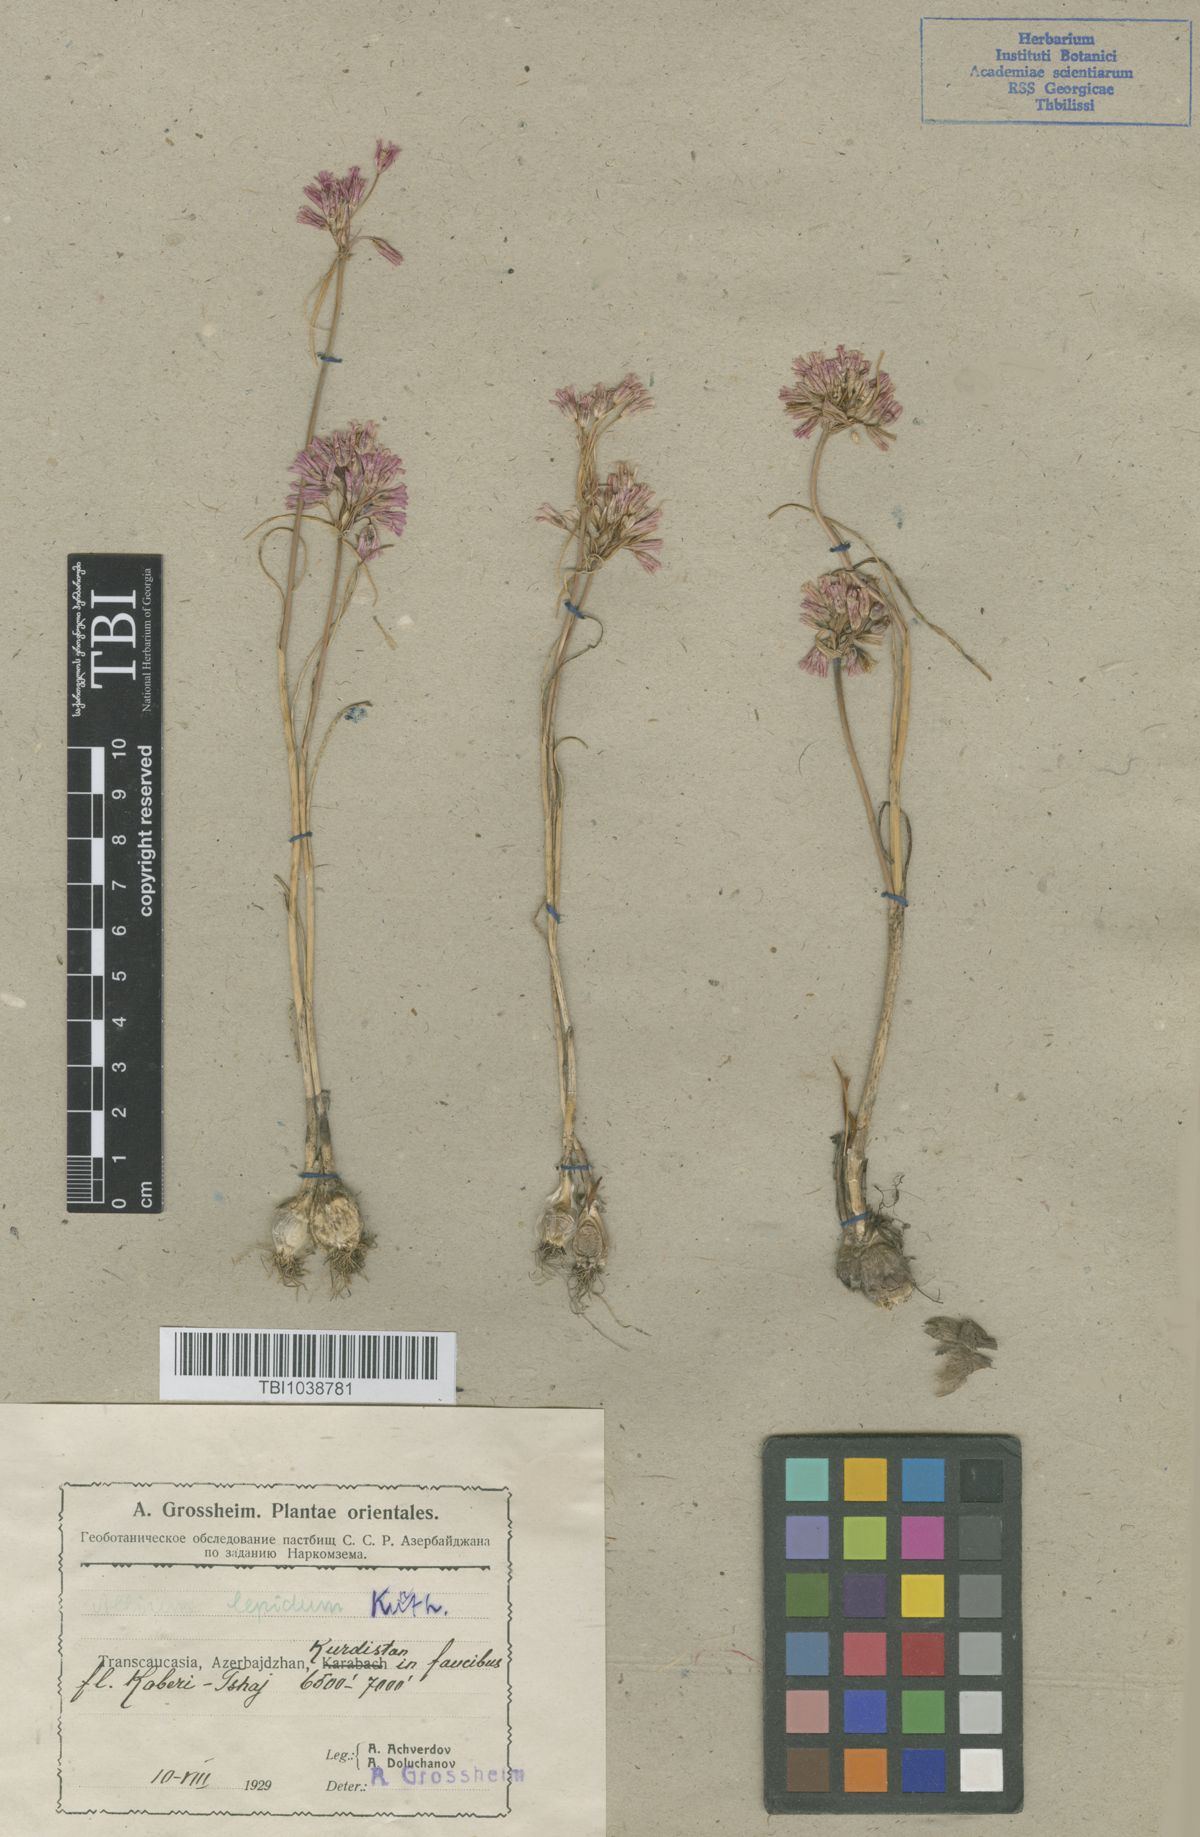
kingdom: Plantae
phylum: Tracheophyta
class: Liliopsida
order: Asparagales
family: Amaryllidaceae
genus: Allium
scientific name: Allium kunthianum
